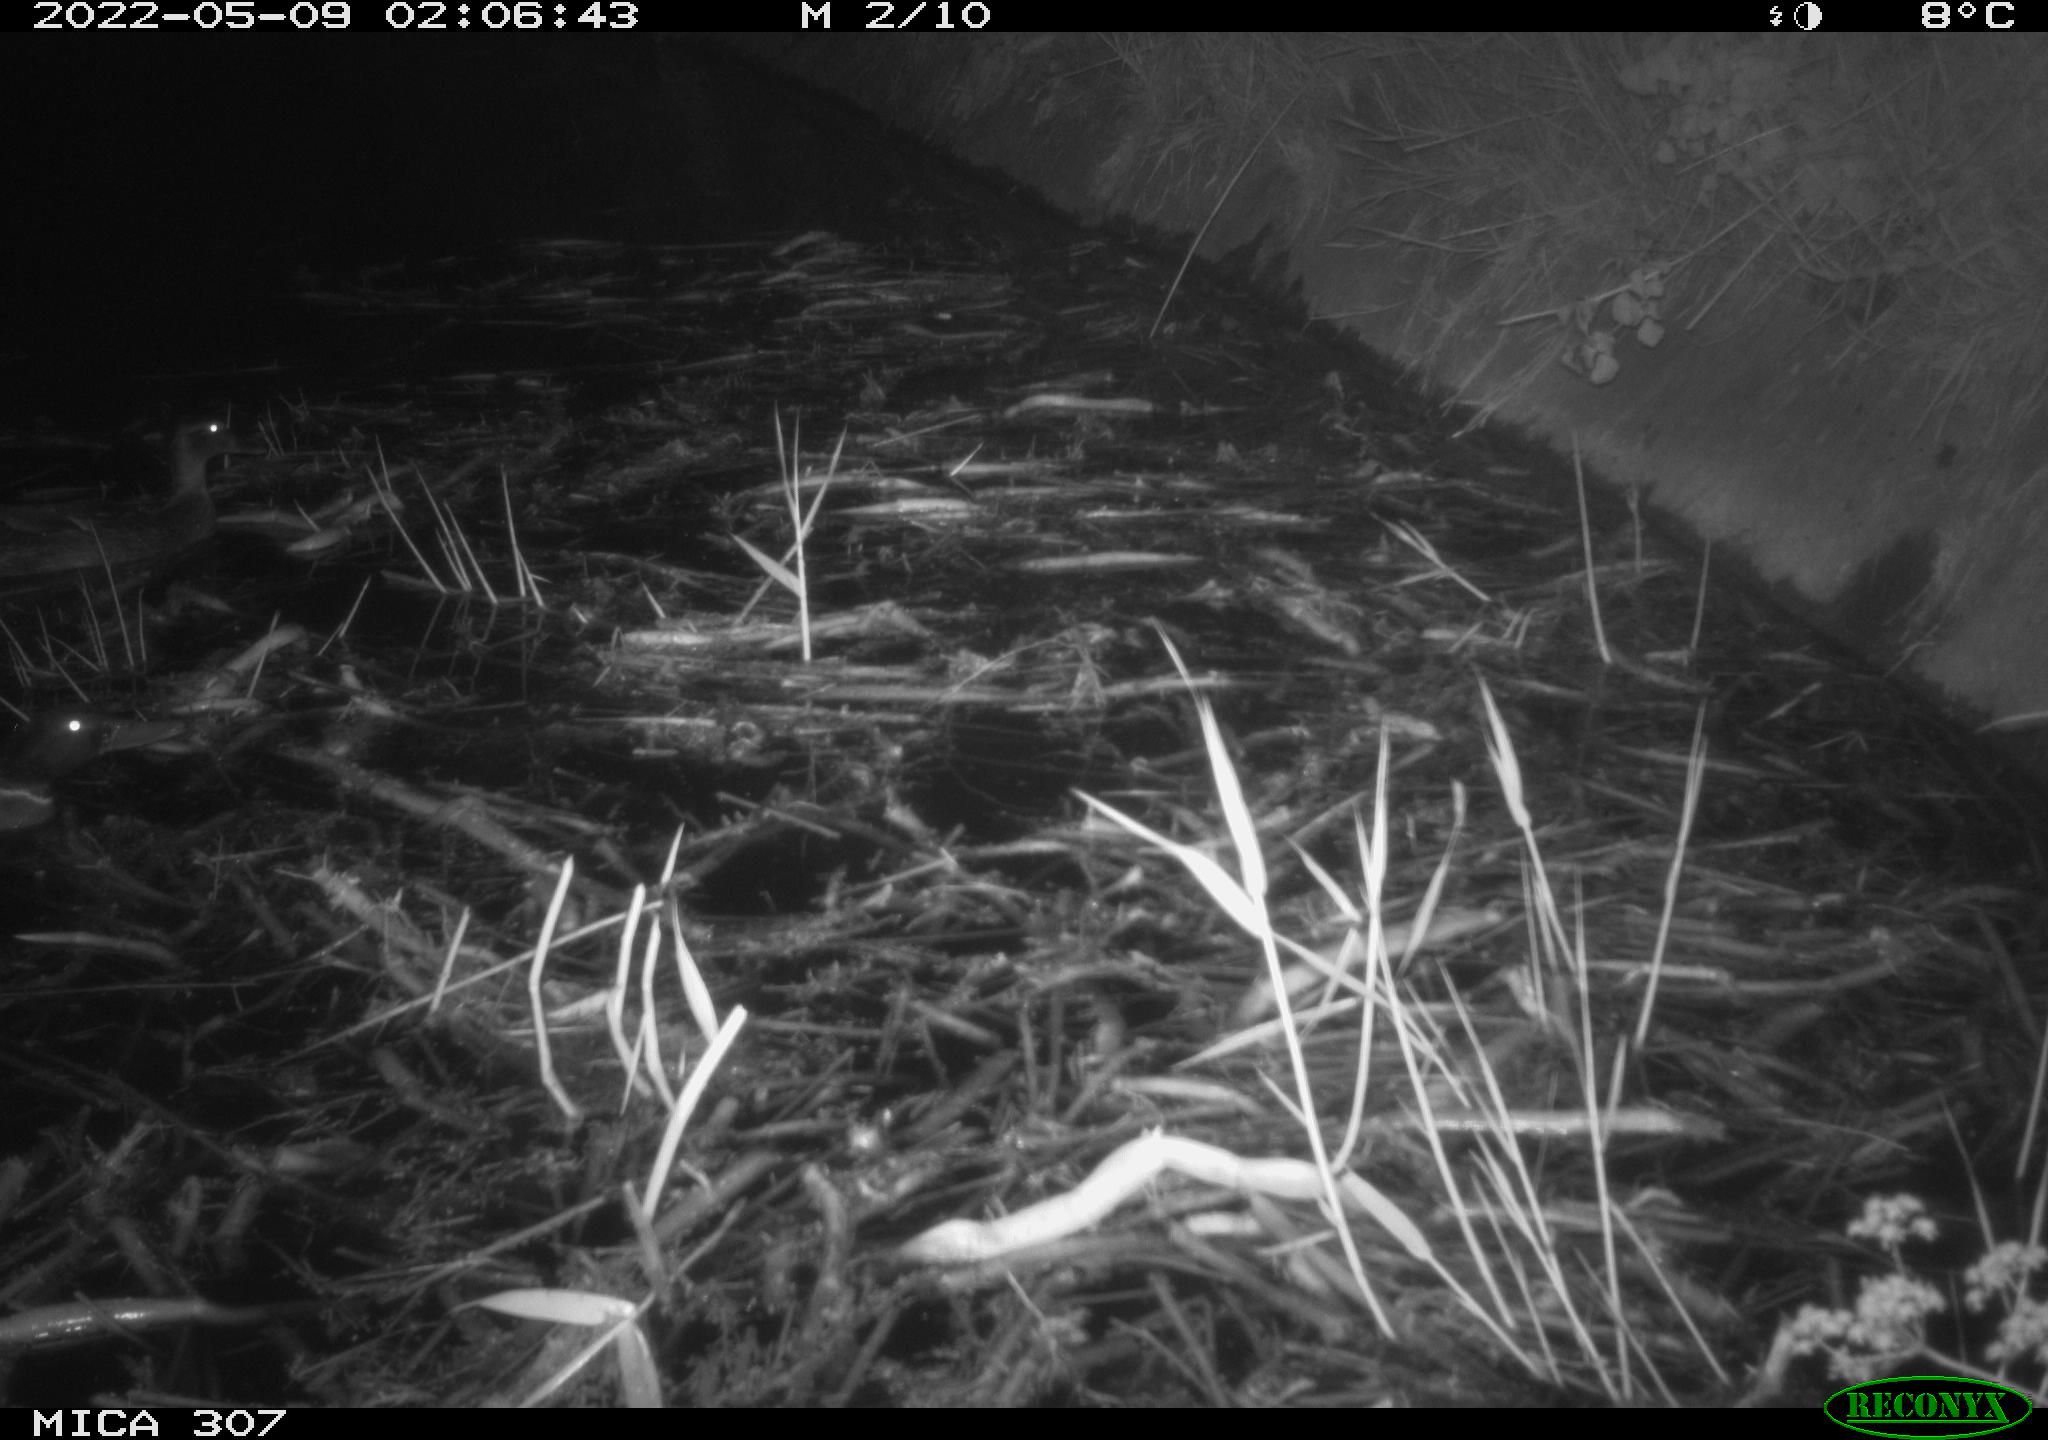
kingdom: Animalia
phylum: Chordata
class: Aves
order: Anseriformes
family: Anatidae
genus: Anas
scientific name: Anas platyrhynchos
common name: Mallard
